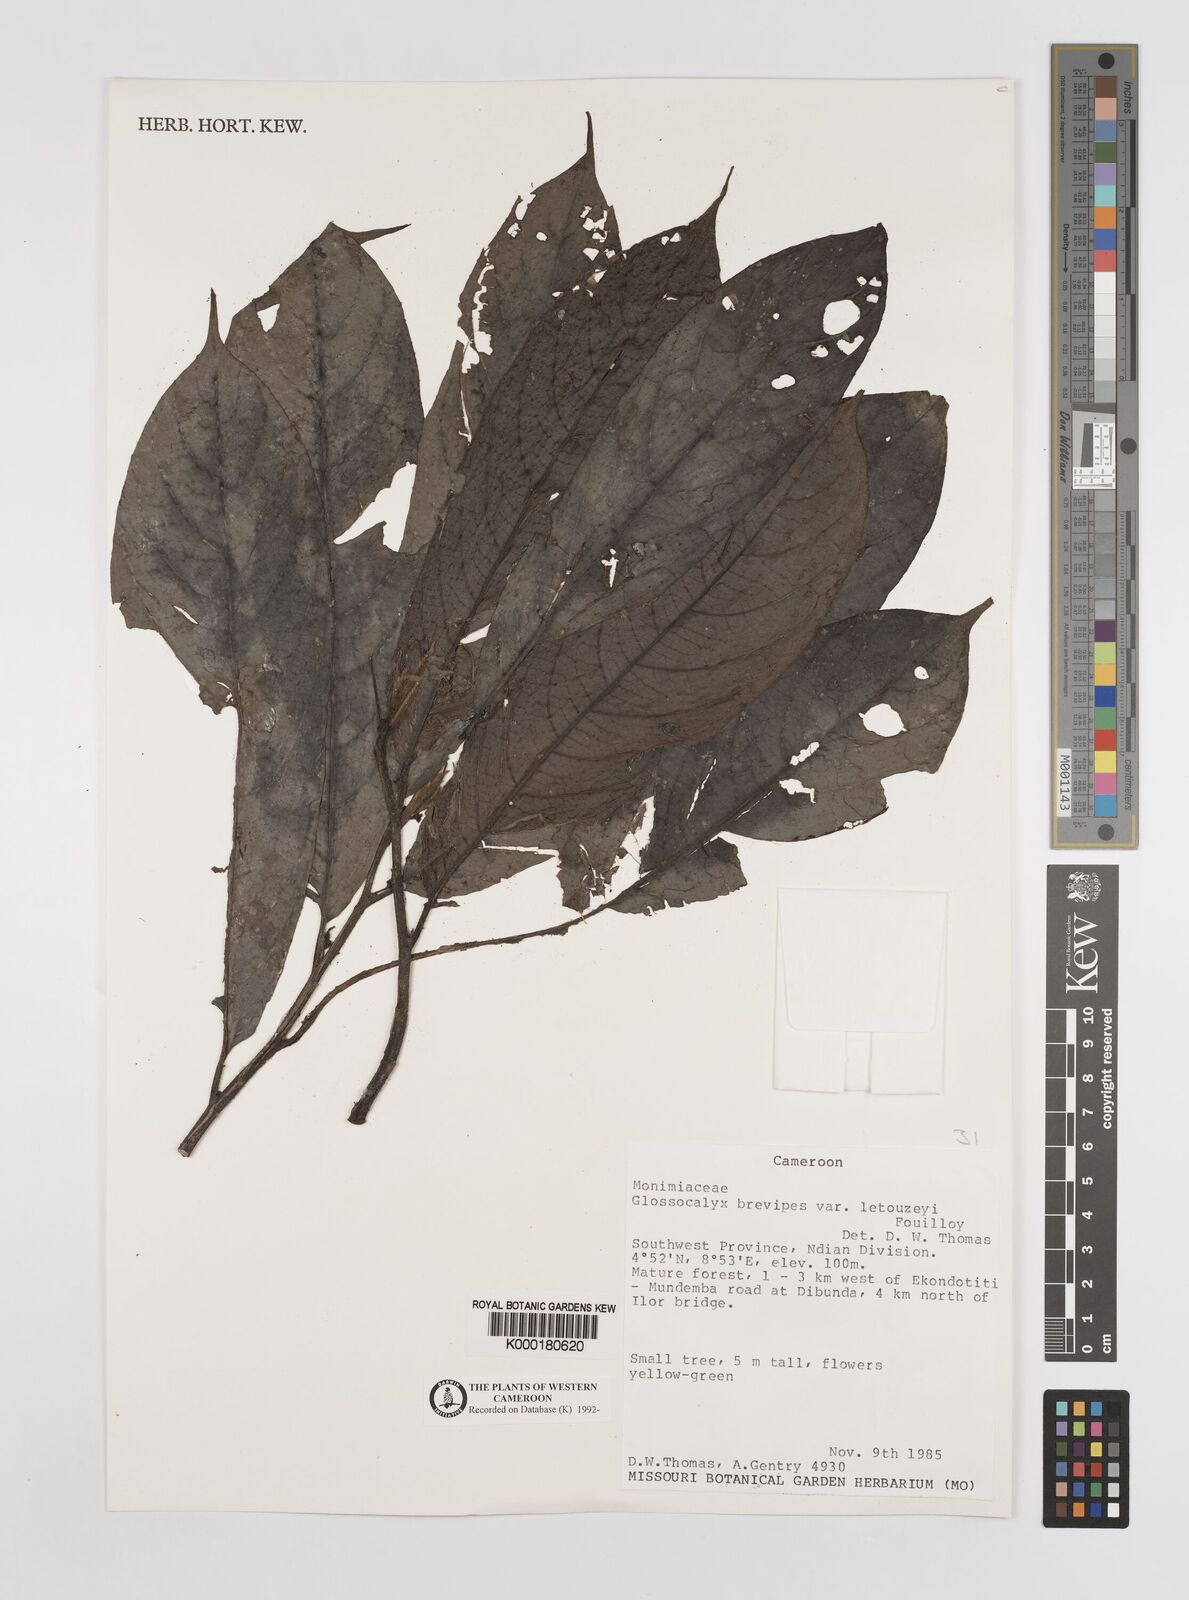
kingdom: Plantae
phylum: Tracheophyta
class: Magnoliopsida
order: Laurales
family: Siparunaceae
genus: Glossocalyx
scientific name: Glossocalyx brevipes
